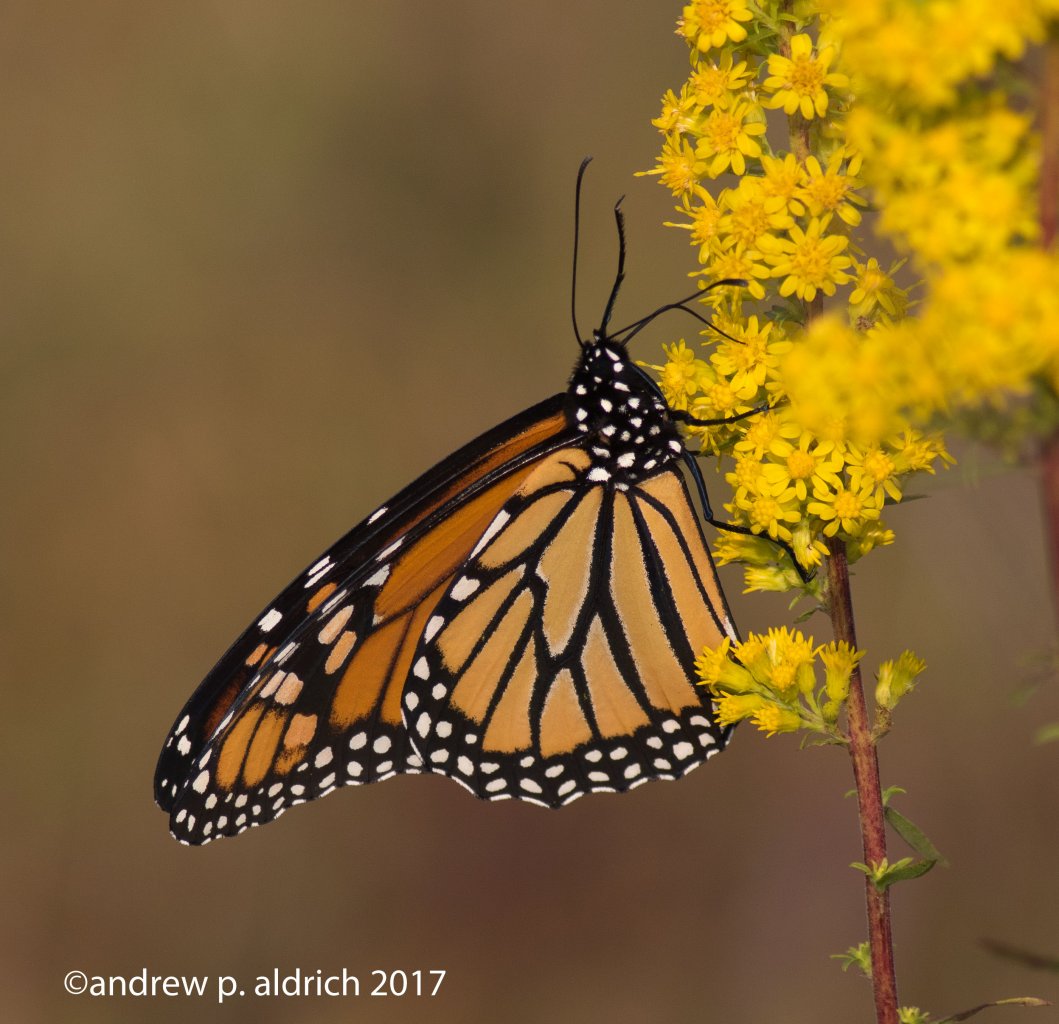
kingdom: Animalia
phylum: Arthropoda
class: Insecta
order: Lepidoptera
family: Nymphalidae
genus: Danaus
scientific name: Danaus plexippus
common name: Monarch
